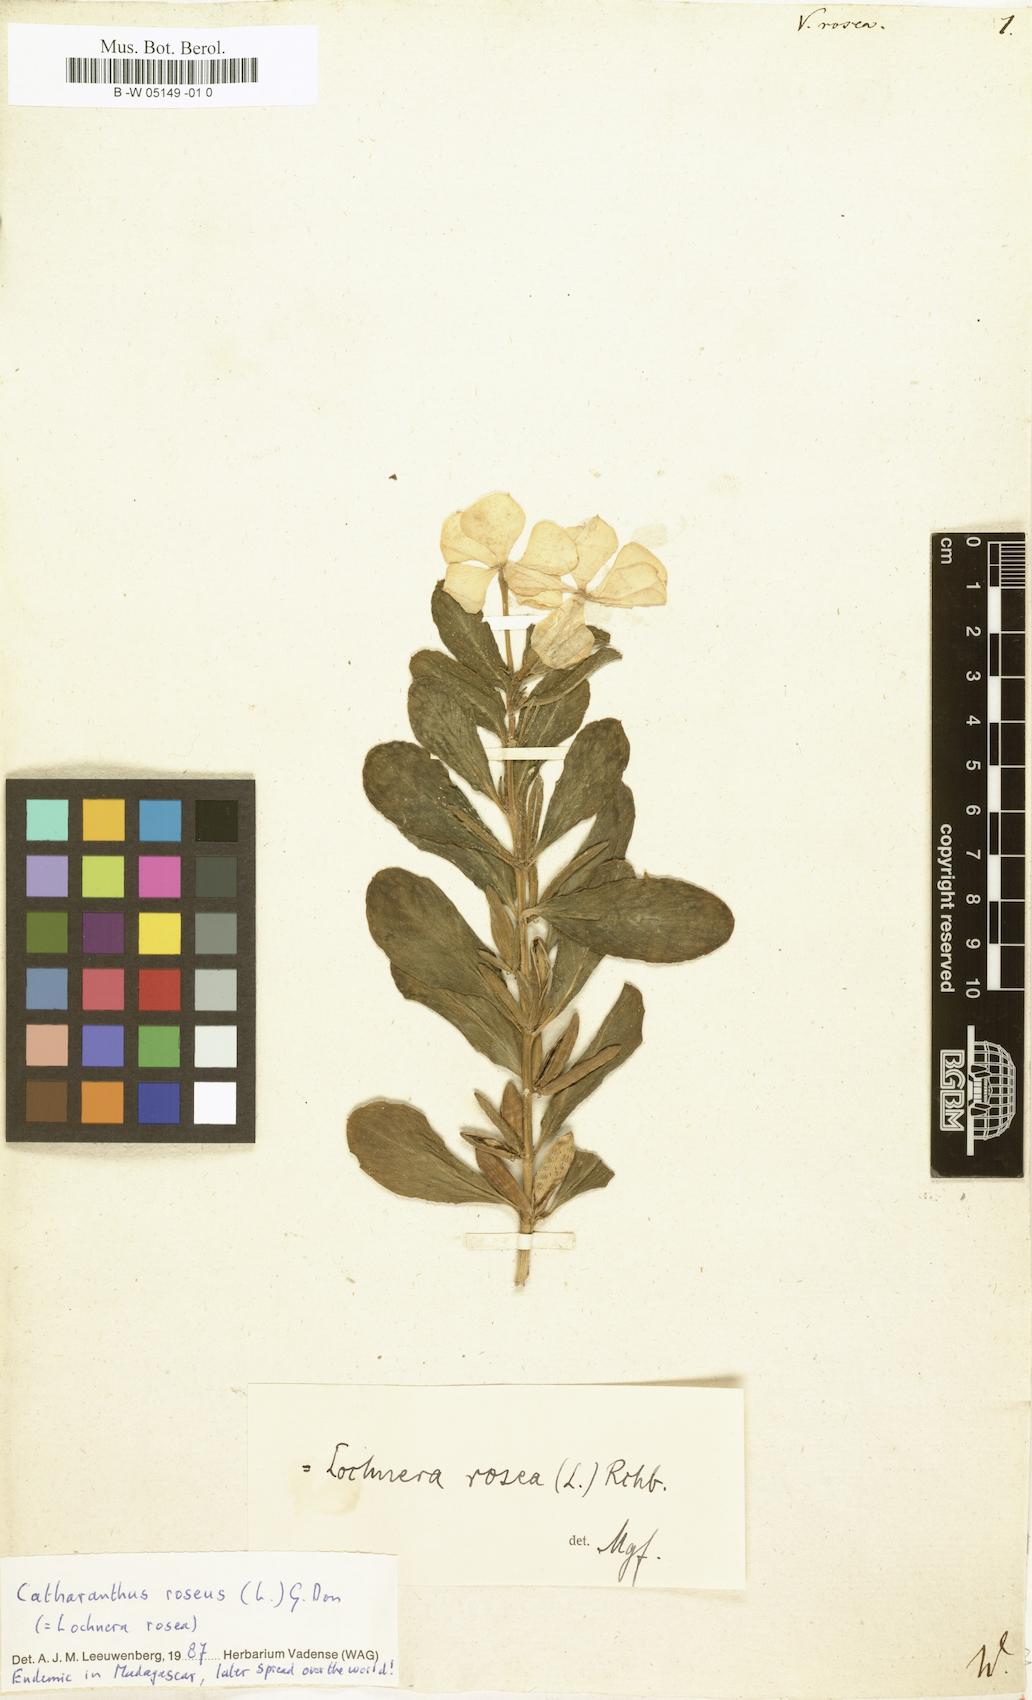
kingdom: Plantae
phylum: Tracheophyta
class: Magnoliopsida
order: Gentianales
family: Apocynaceae
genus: Catharanthus
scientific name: Catharanthus roseus
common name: Madagascar periwinkle
